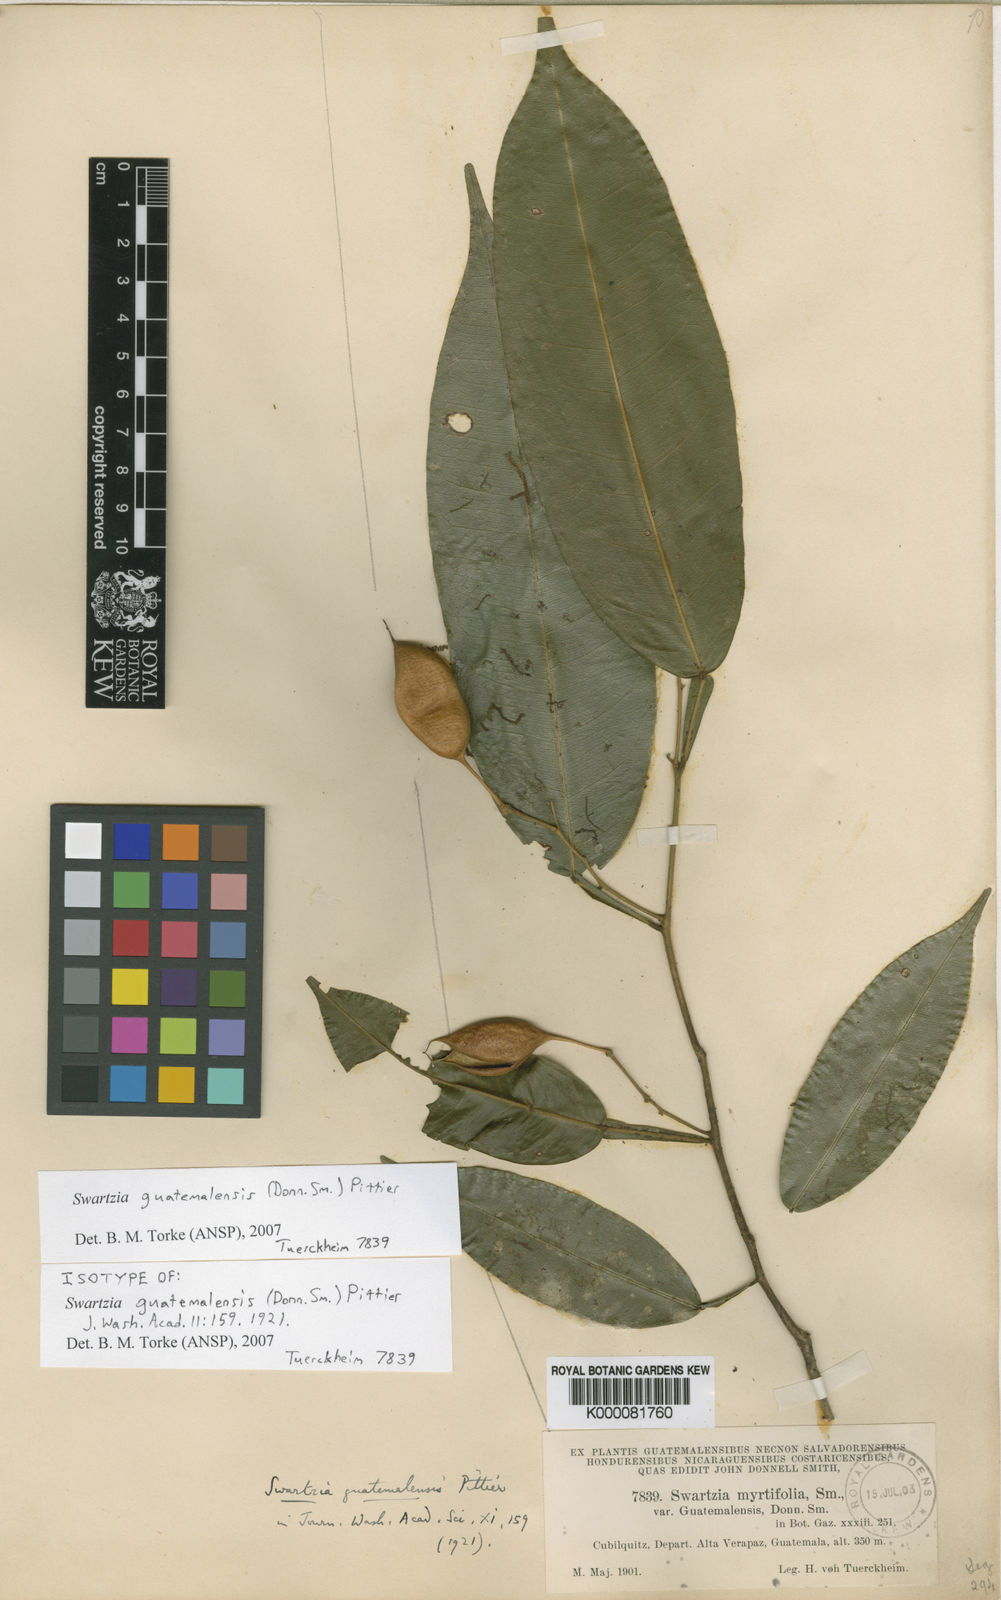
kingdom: Plantae
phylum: Tracheophyta
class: Magnoliopsida
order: Fabales
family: Fabaceae
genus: Swartzia
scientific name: Swartzia guatemalensis
